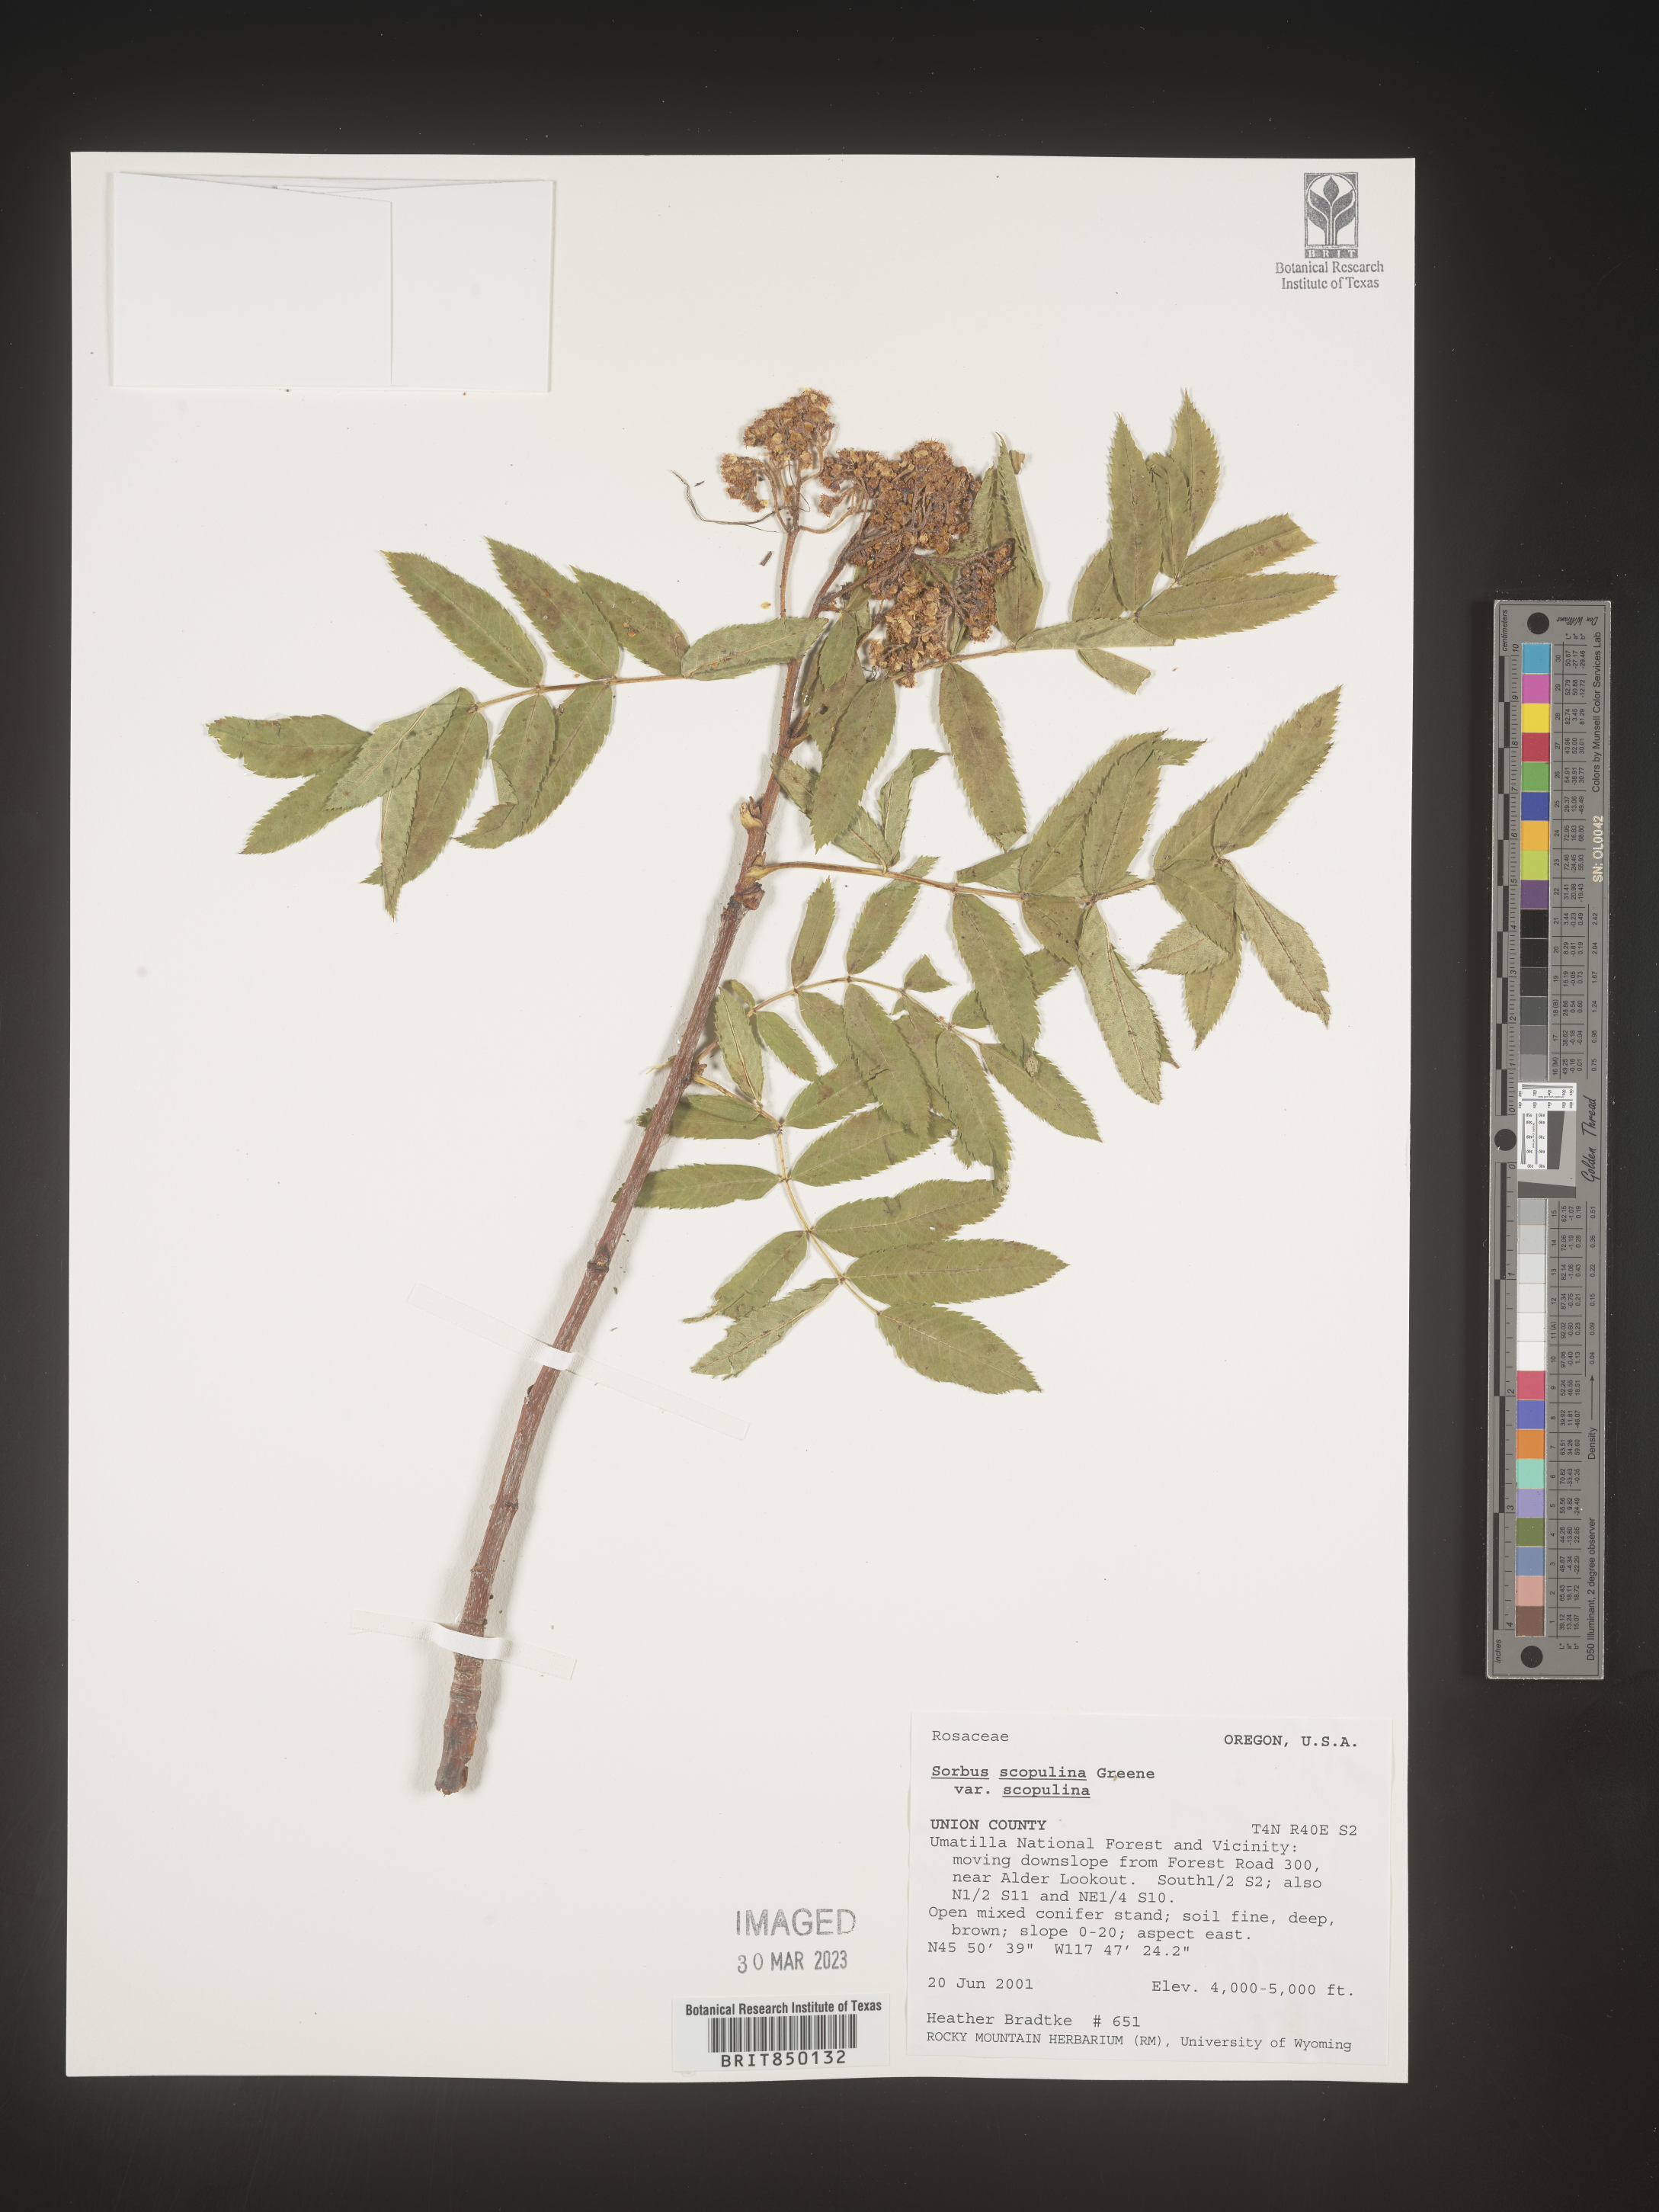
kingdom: Plantae
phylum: Tracheophyta
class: Magnoliopsida
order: Rosales
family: Rosaceae
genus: Sorbus
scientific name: Sorbus scopulina
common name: Greene's mountain-ash
